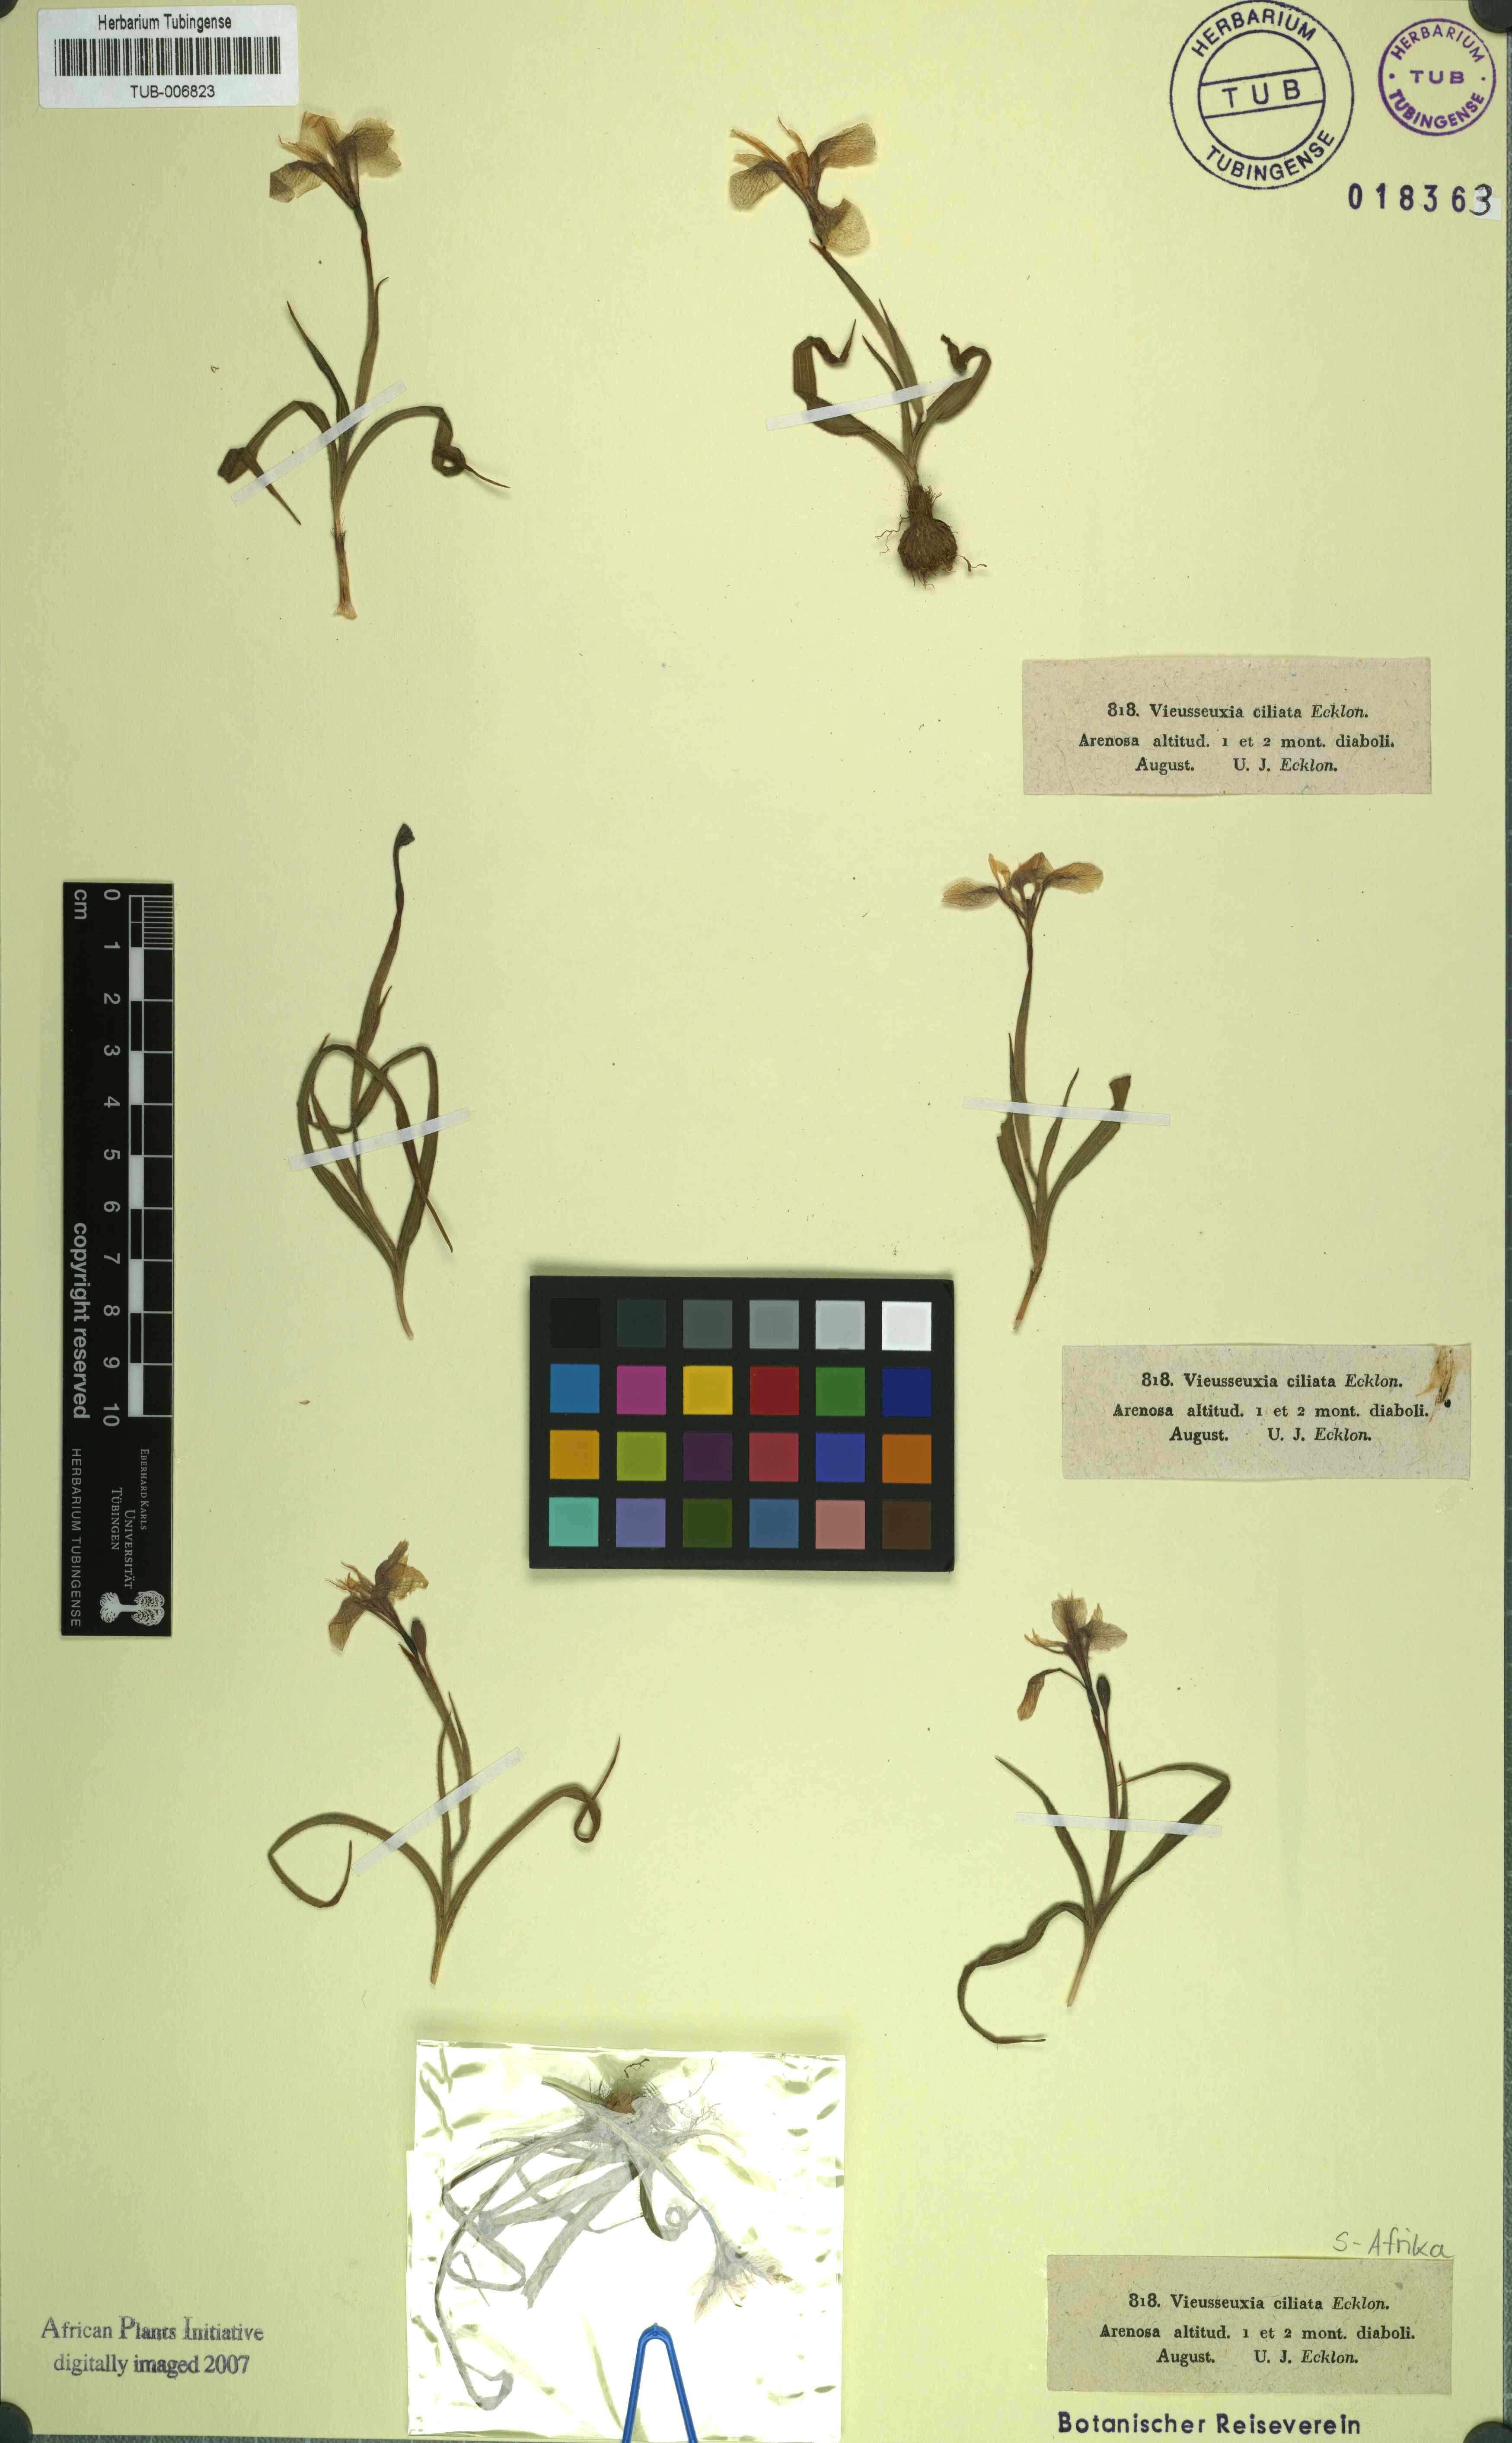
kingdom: Plantae
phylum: Tracheophyta
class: Liliopsida
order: Asparagales
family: Iridaceae
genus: Moraea
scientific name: Moraea papilionacea
